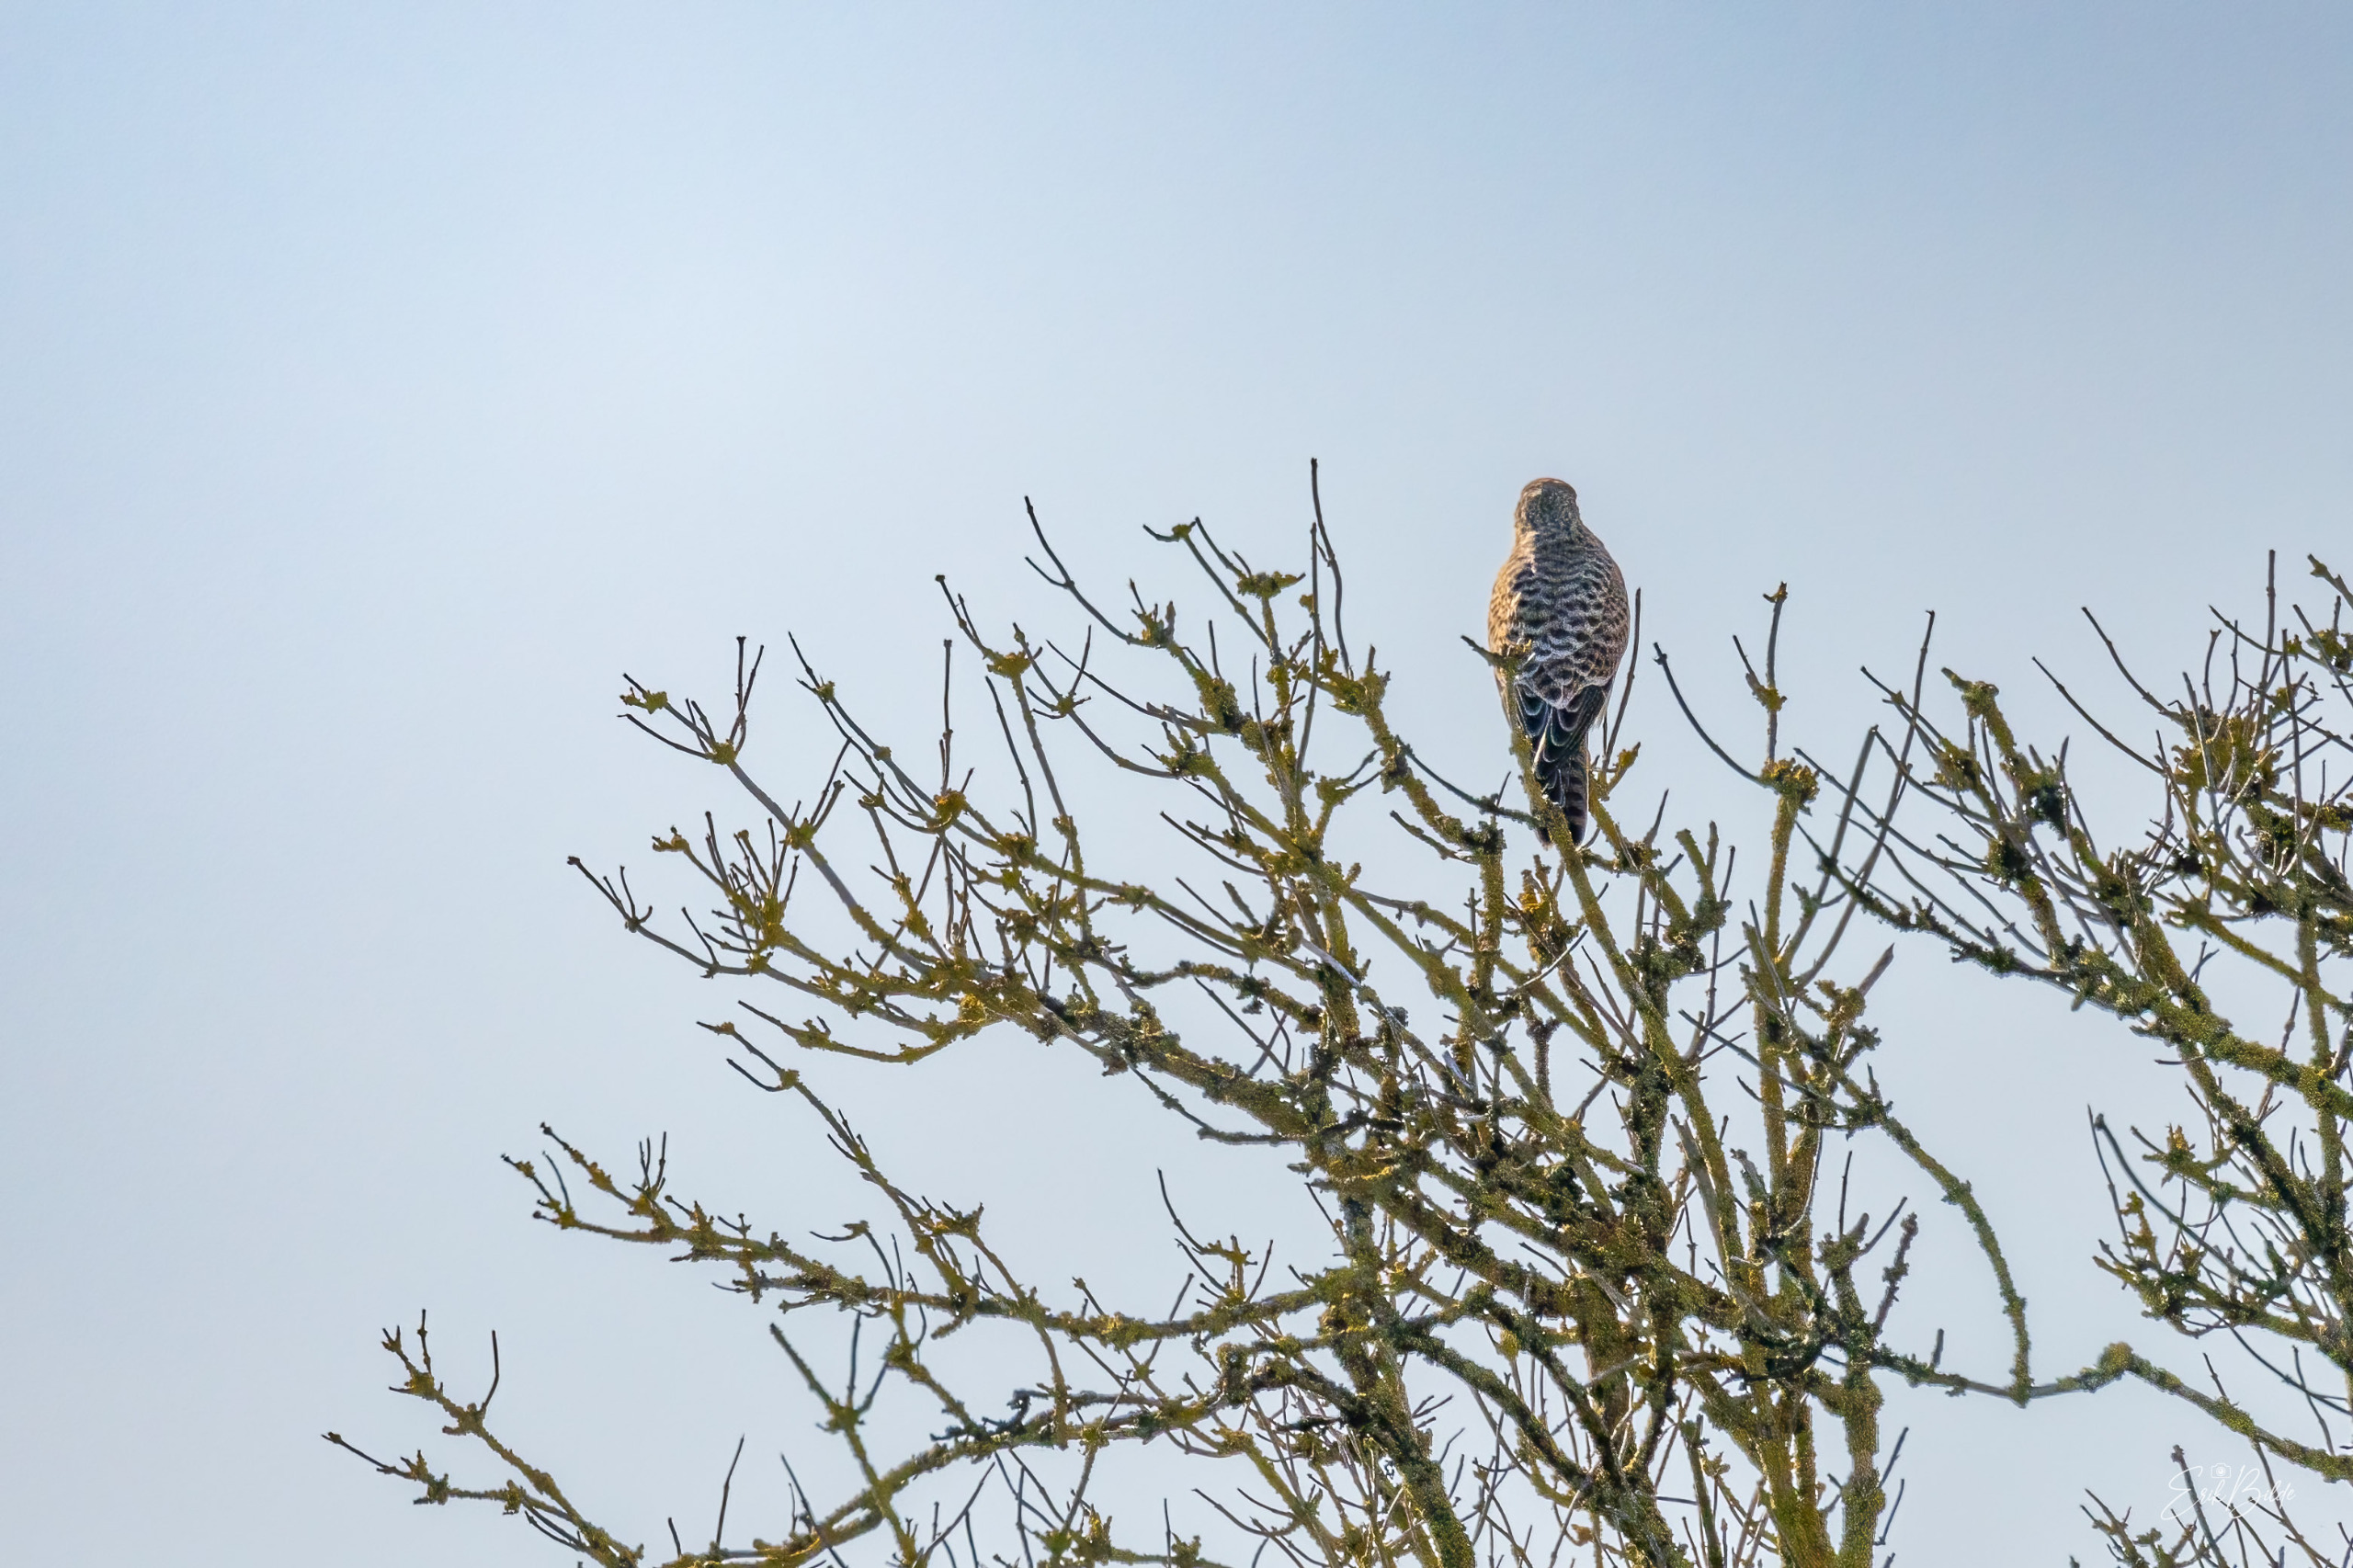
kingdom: Animalia
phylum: Chordata
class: Aves
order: Falconiformes
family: Falconidae
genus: Falco
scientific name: Falco tinnunculus
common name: Tårnfalk
